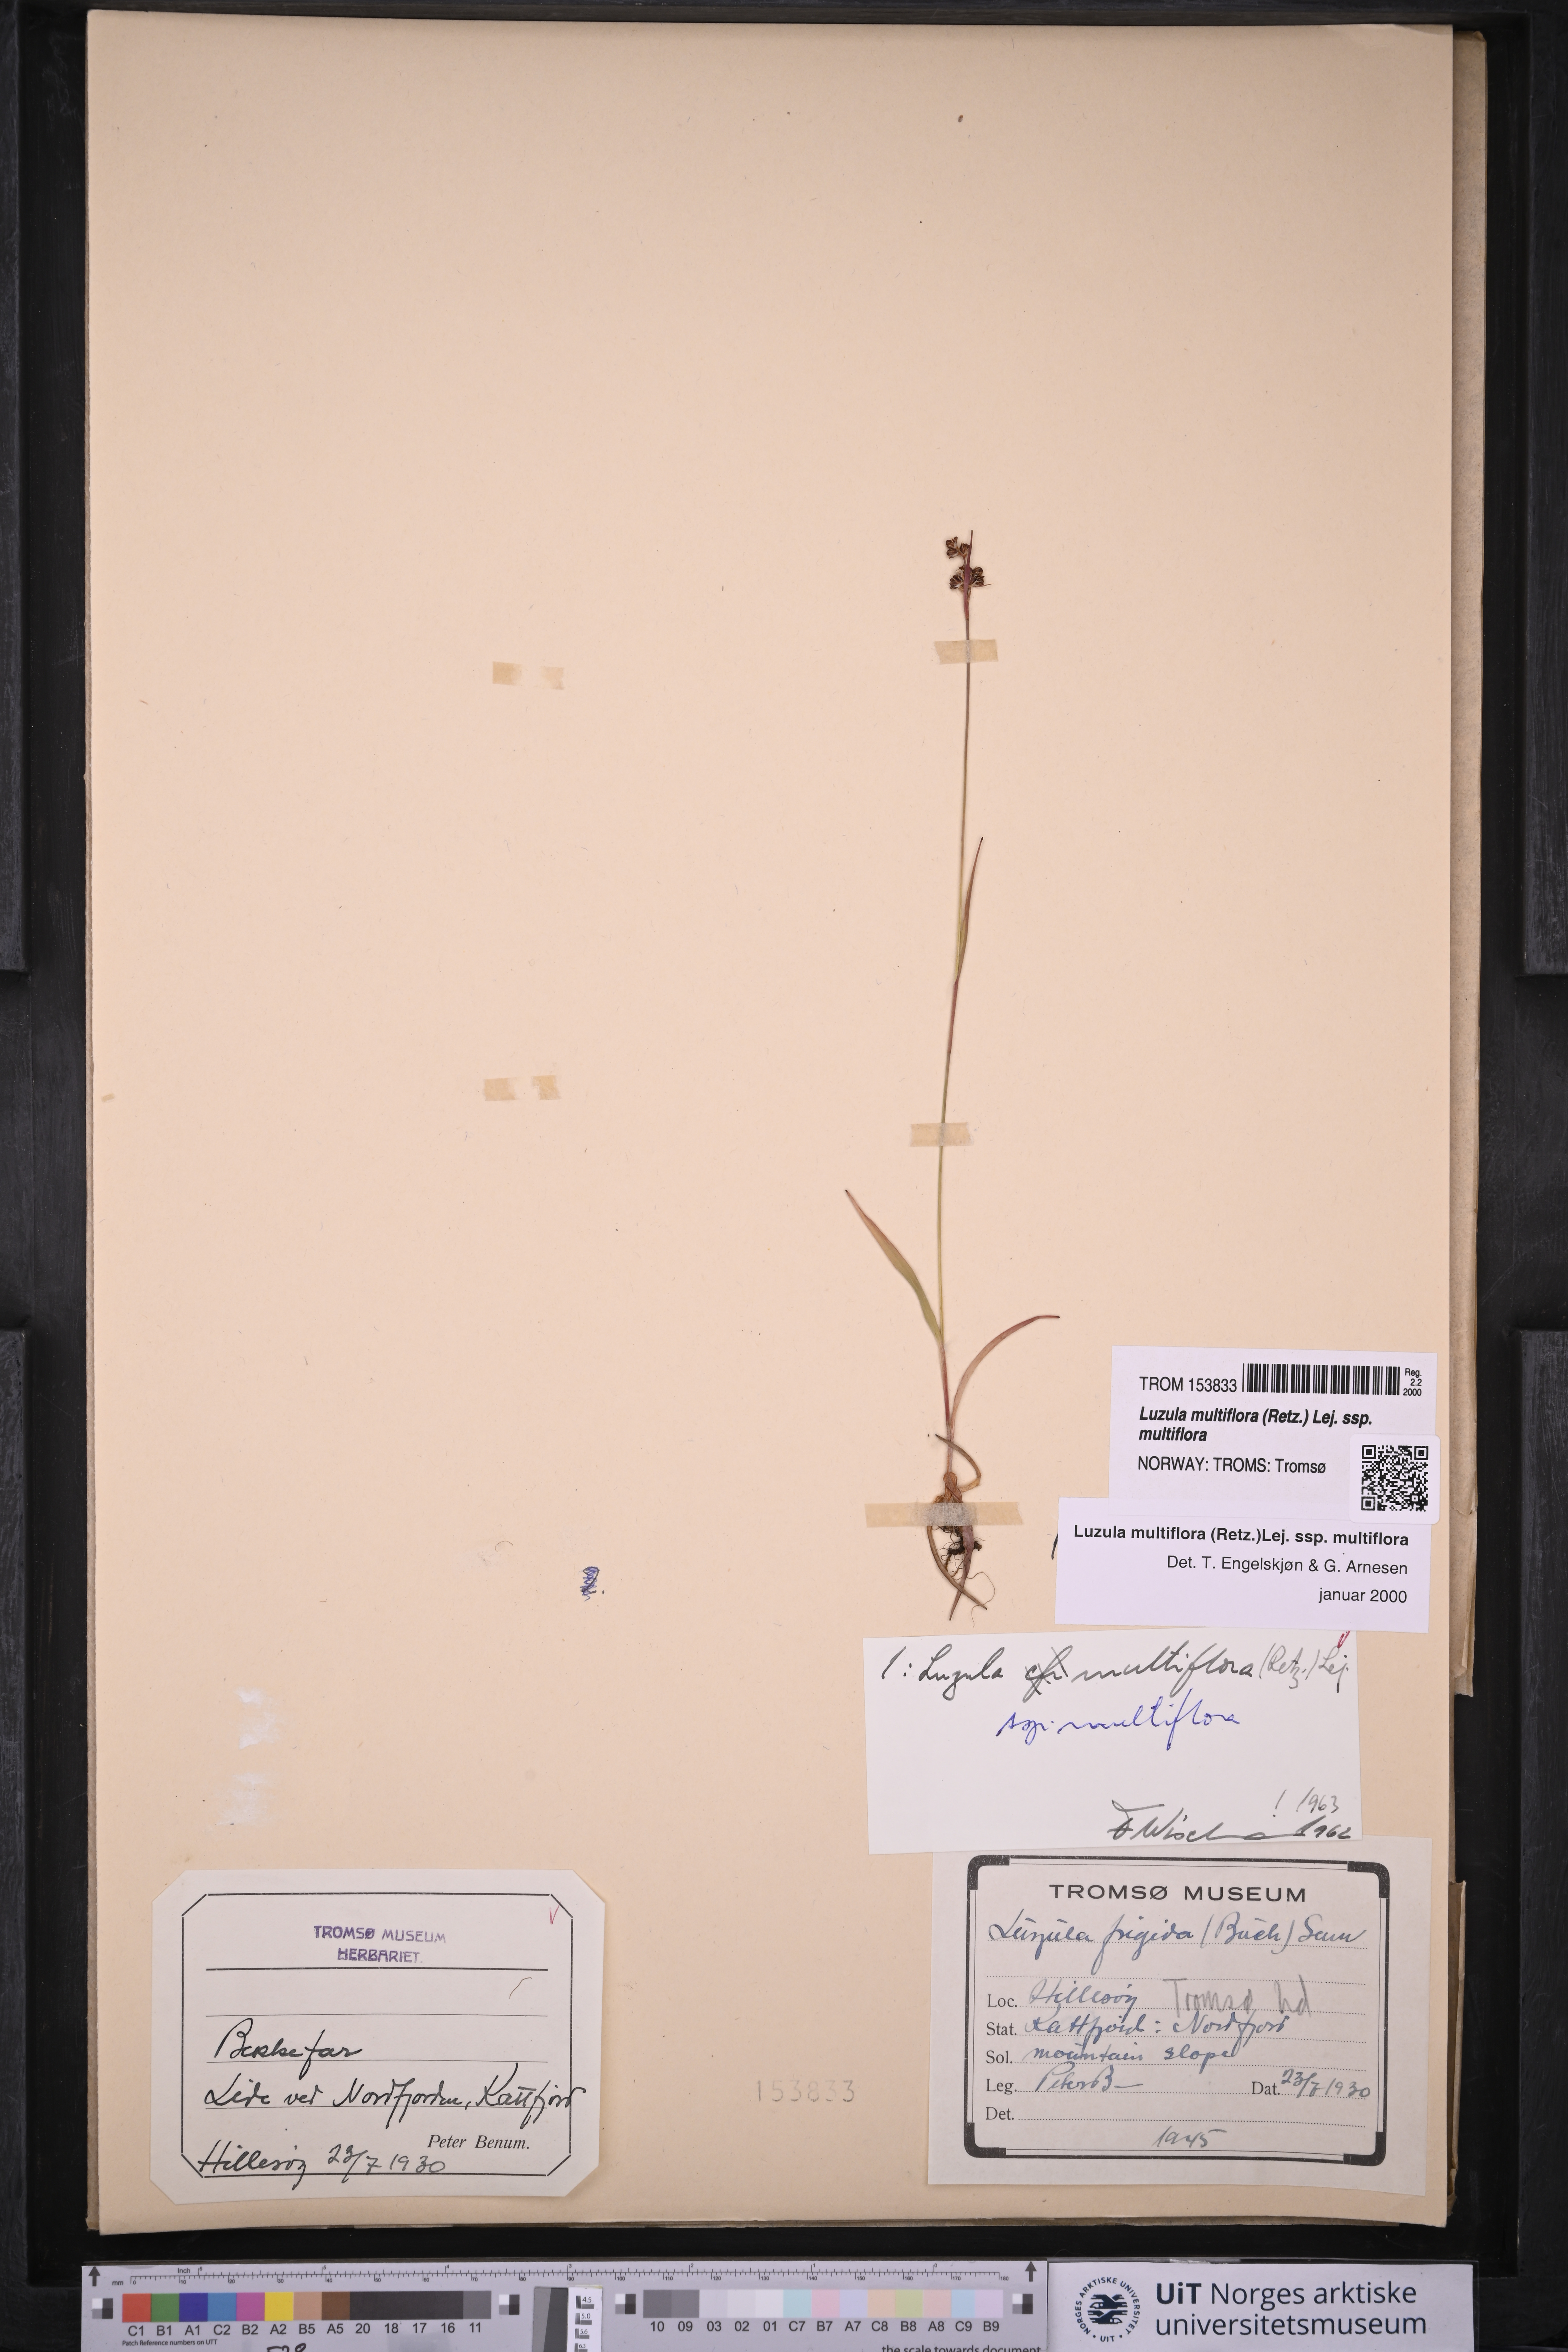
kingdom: Plantae
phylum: Tracheophyta
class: Liliopsida
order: Poales
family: Juncaceae
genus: Luzula
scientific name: Luzula multiflora
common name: Heath wood-rush
